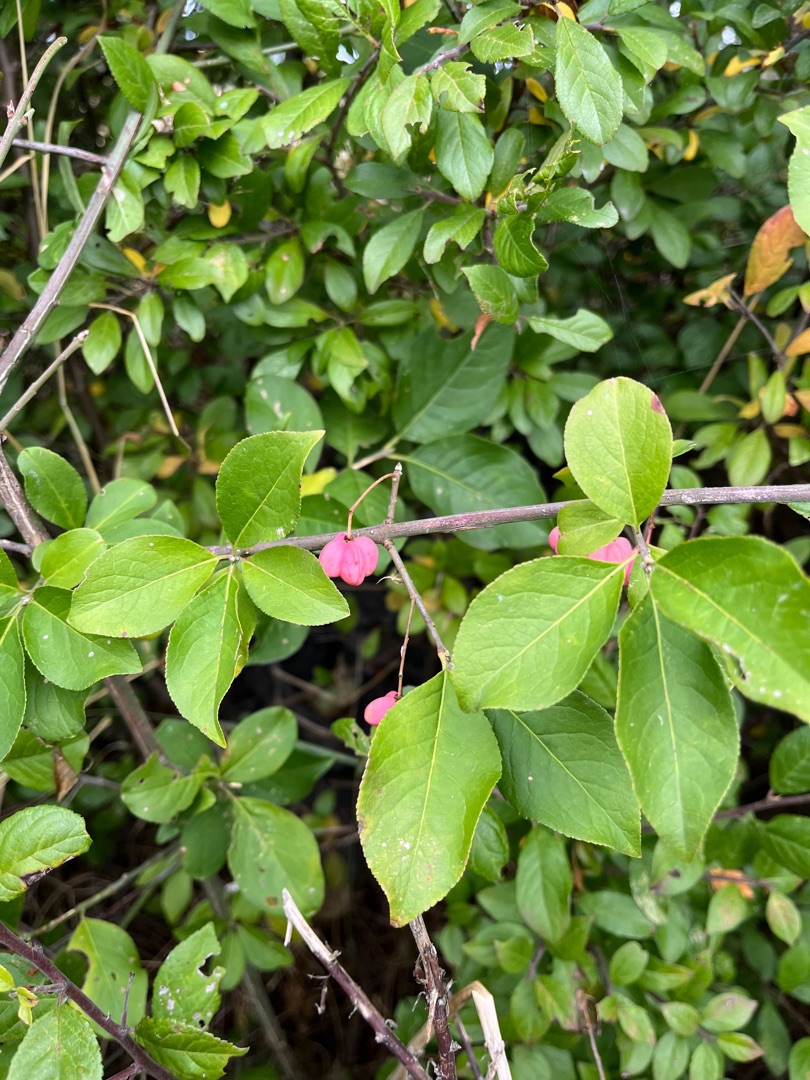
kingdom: Plantae
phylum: Tracheophyta
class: Magnoliopsida
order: Celastrales
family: Celastraceae
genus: Euonymus
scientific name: Euonymus europaeus
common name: Benved
